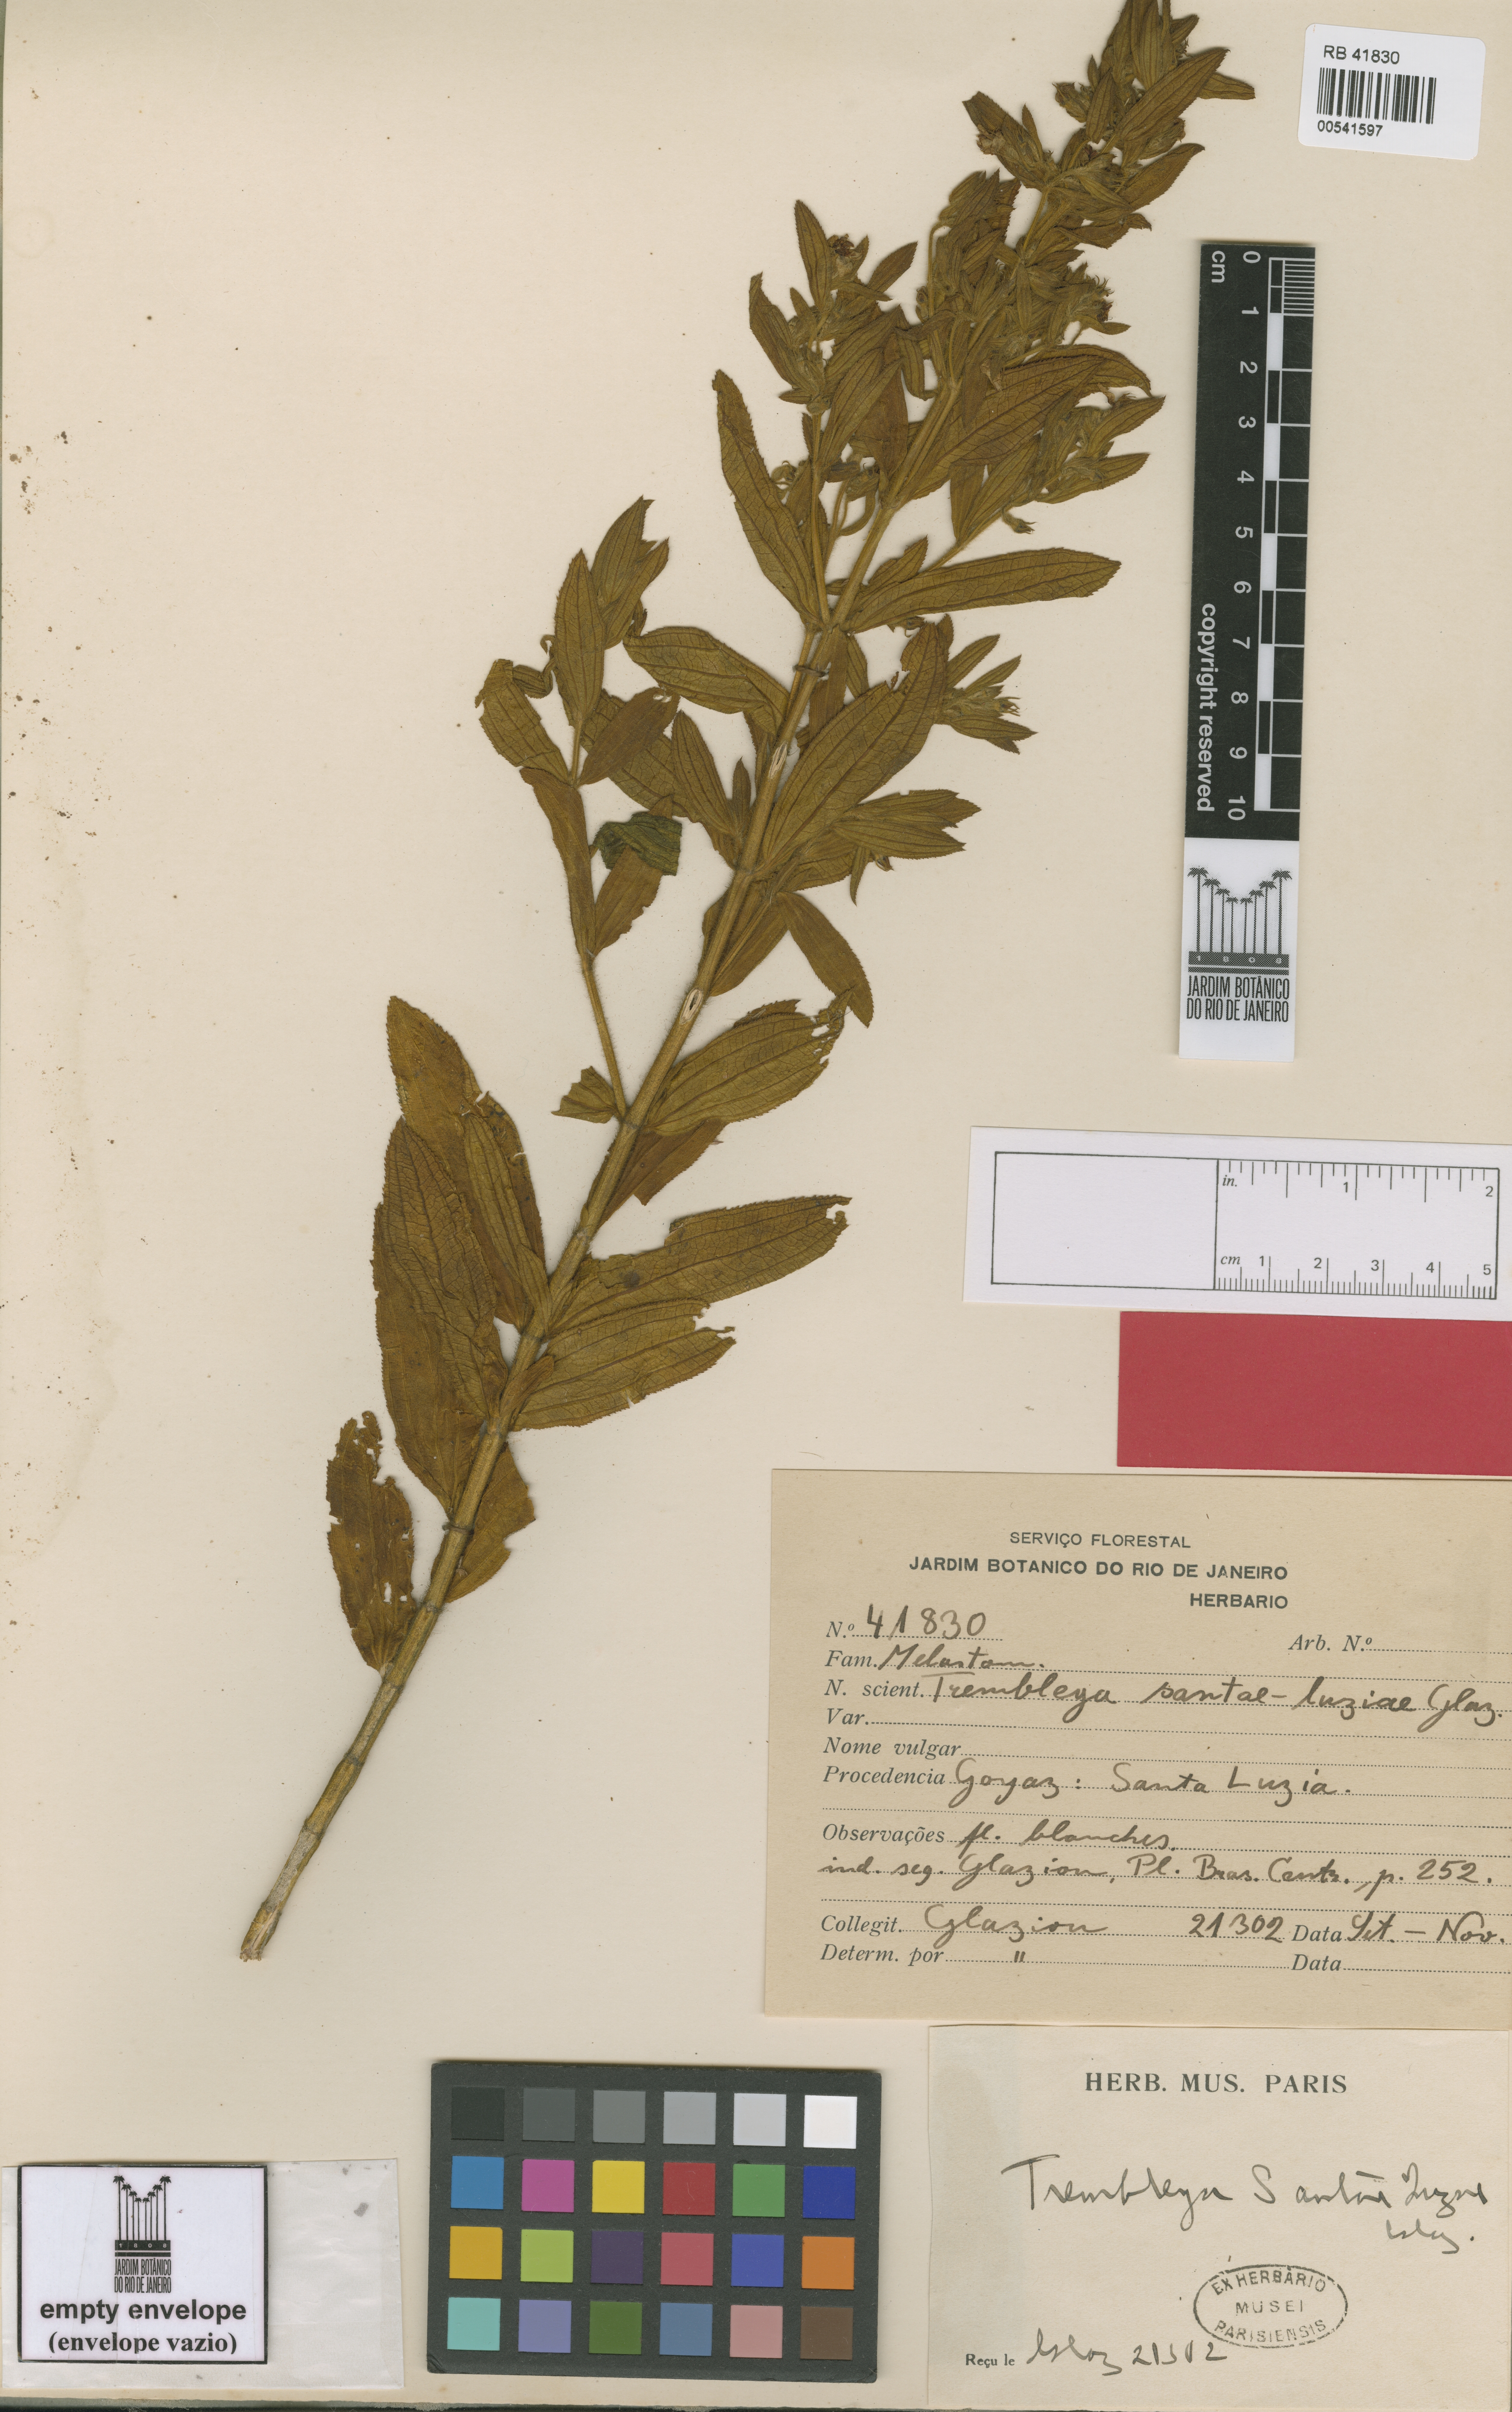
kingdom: Plantae
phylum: Tracheophyta
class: Magnoliopsida
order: Myrtales
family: Melastomataceae
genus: Microlicia
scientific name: Microlicia phlogiformis
